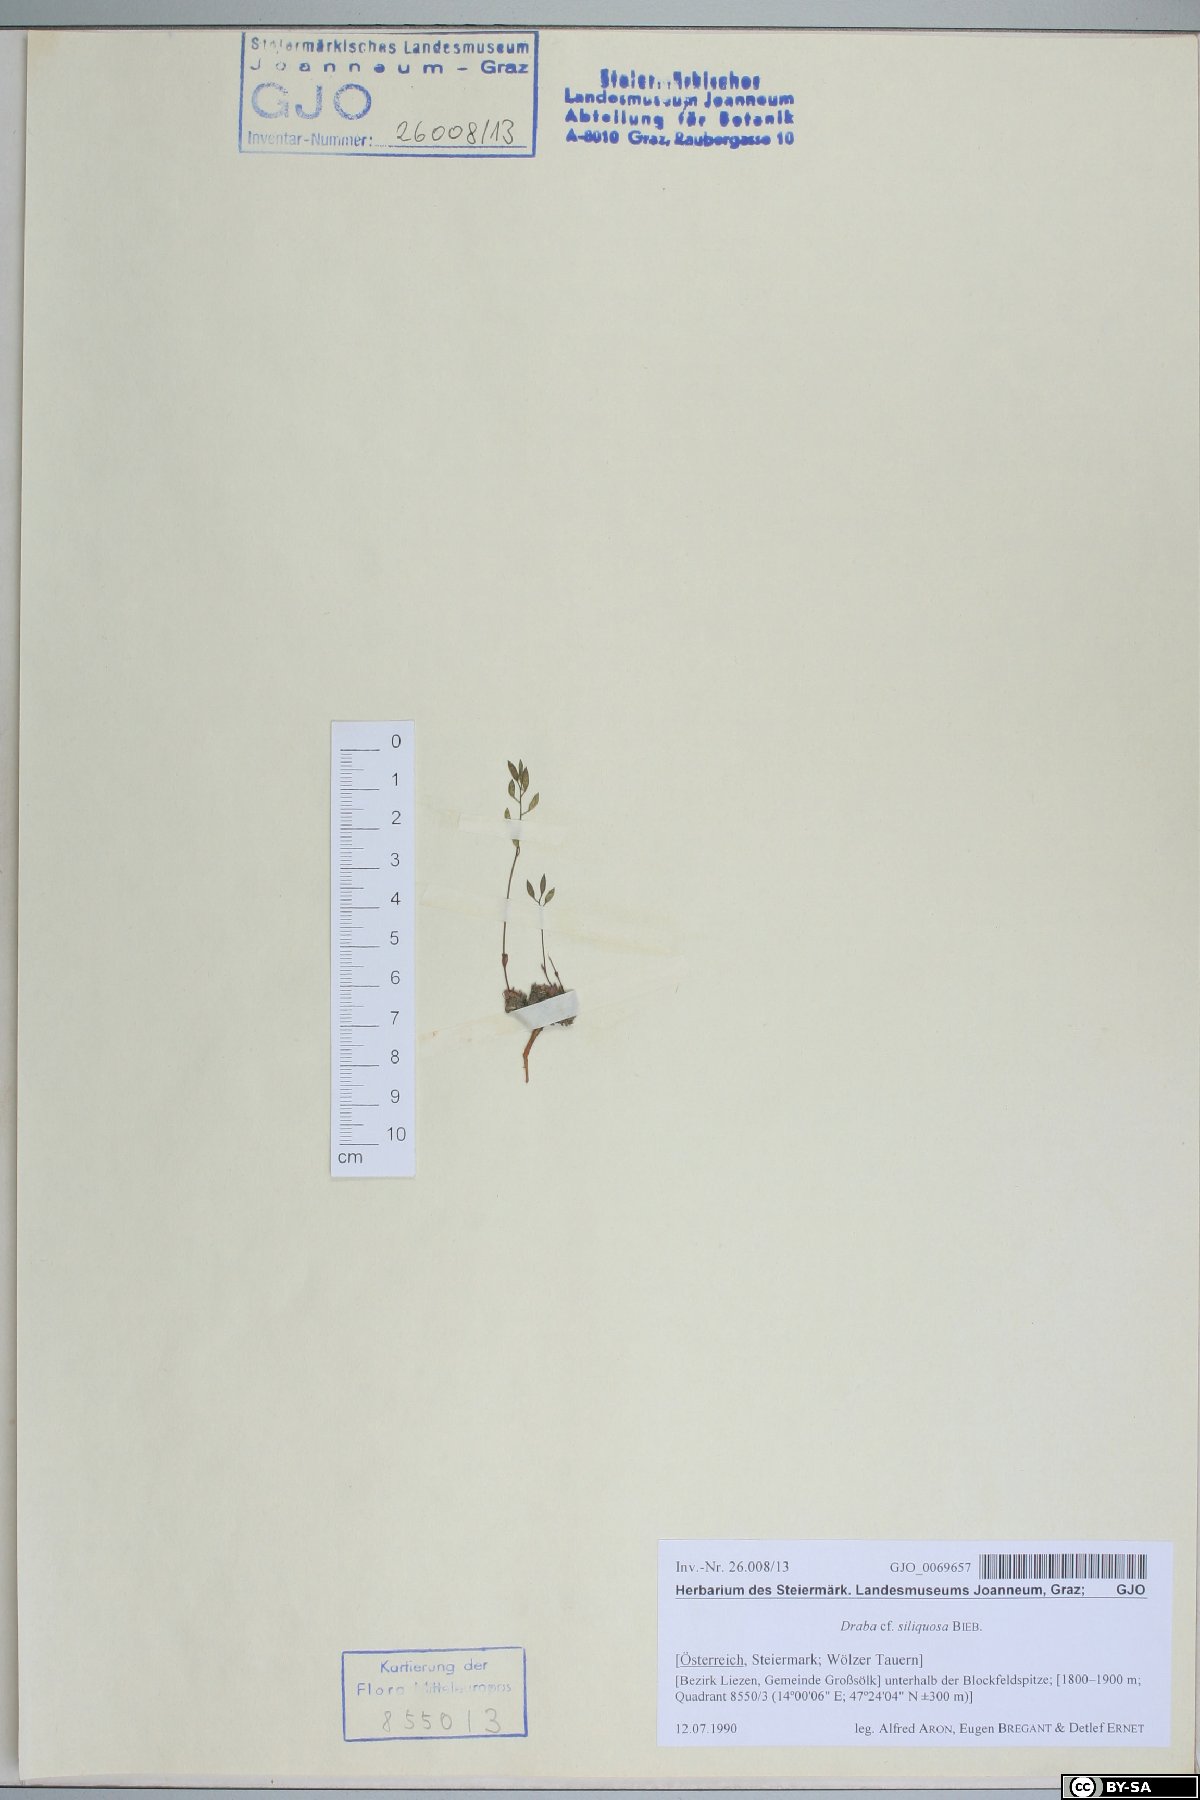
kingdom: Plantae
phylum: Tracheophyta
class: Magnoliopsida
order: Brassicales
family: Brassicaceae
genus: Draba
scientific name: Draba siliquosa
